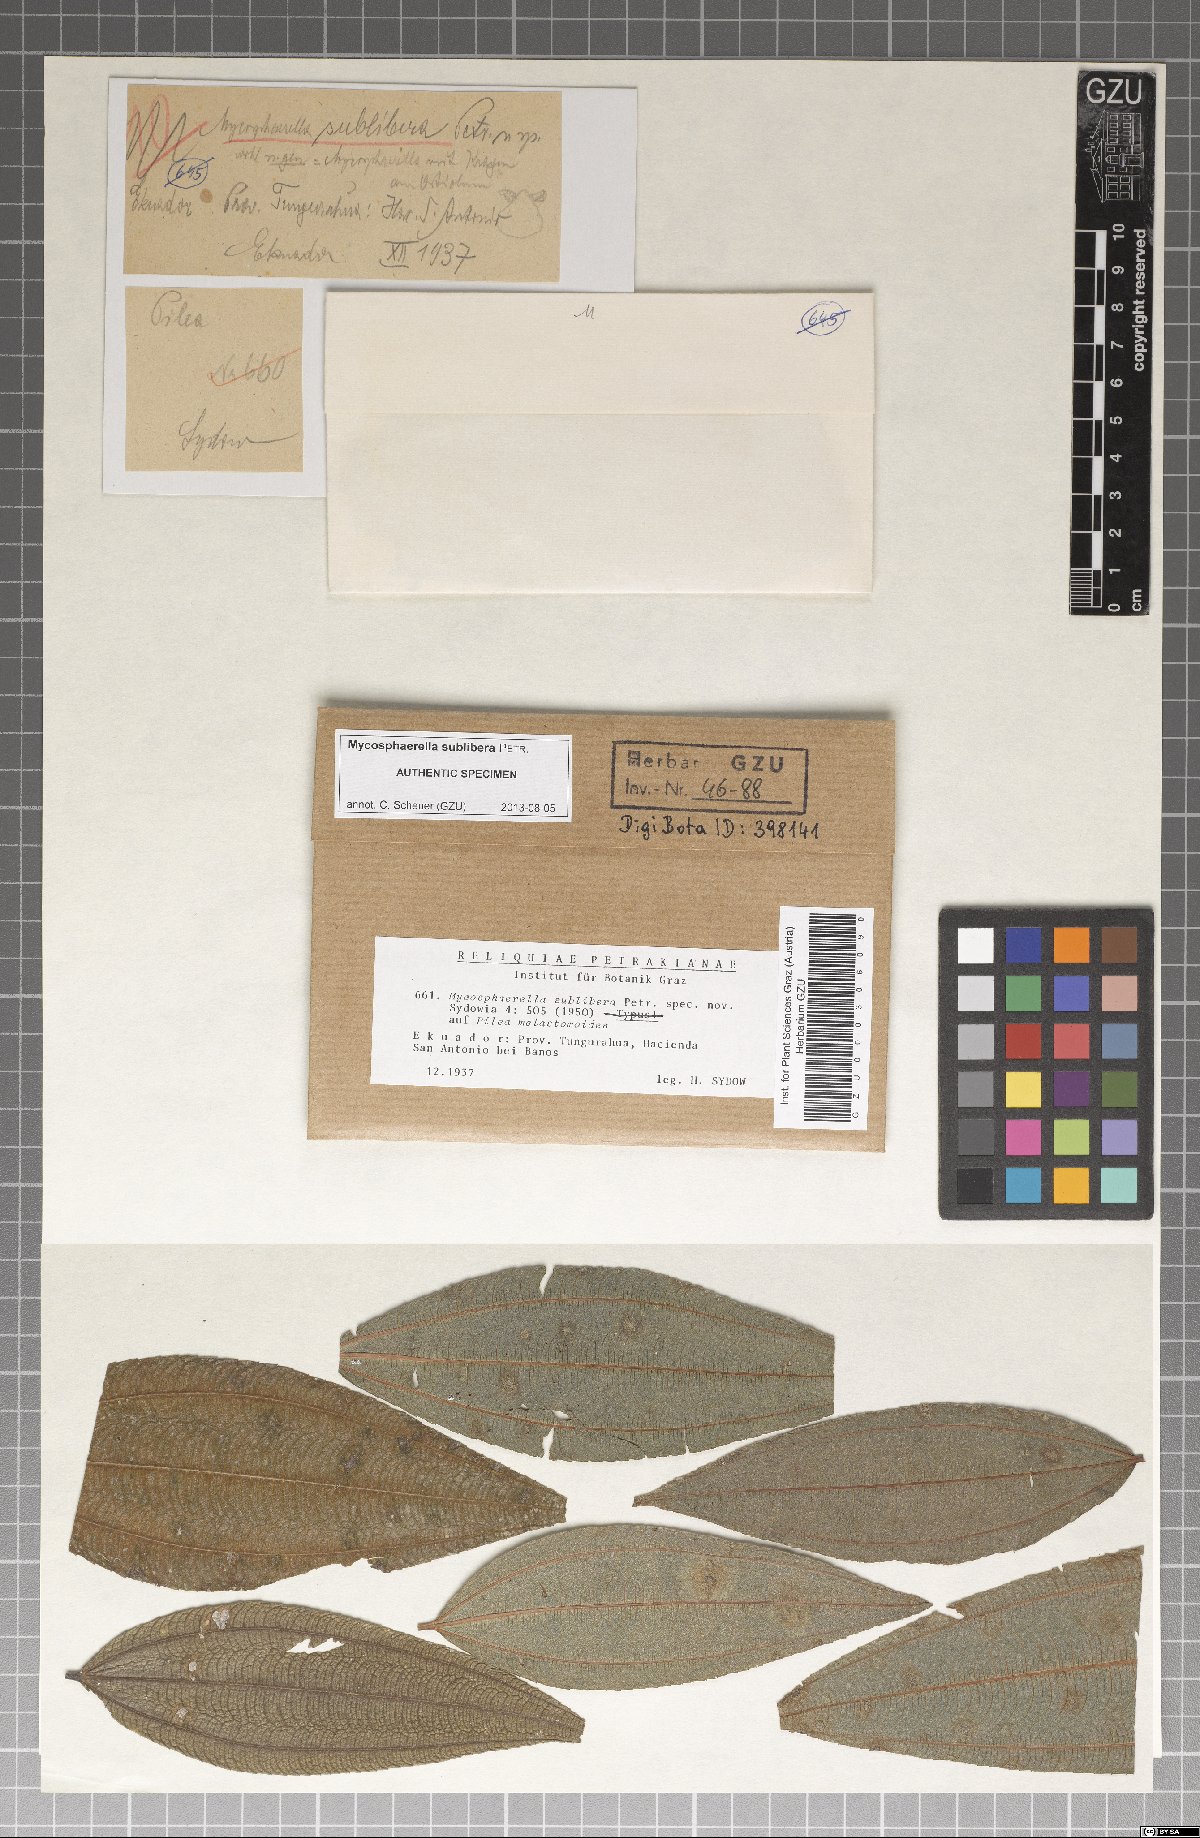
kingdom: Fungi
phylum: Ascomycota
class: Dothideomycetes
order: Mycosphaerellales
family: Mycosphaerellaceae
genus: Mycosphaerella
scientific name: Mycosphaerella sublibera
